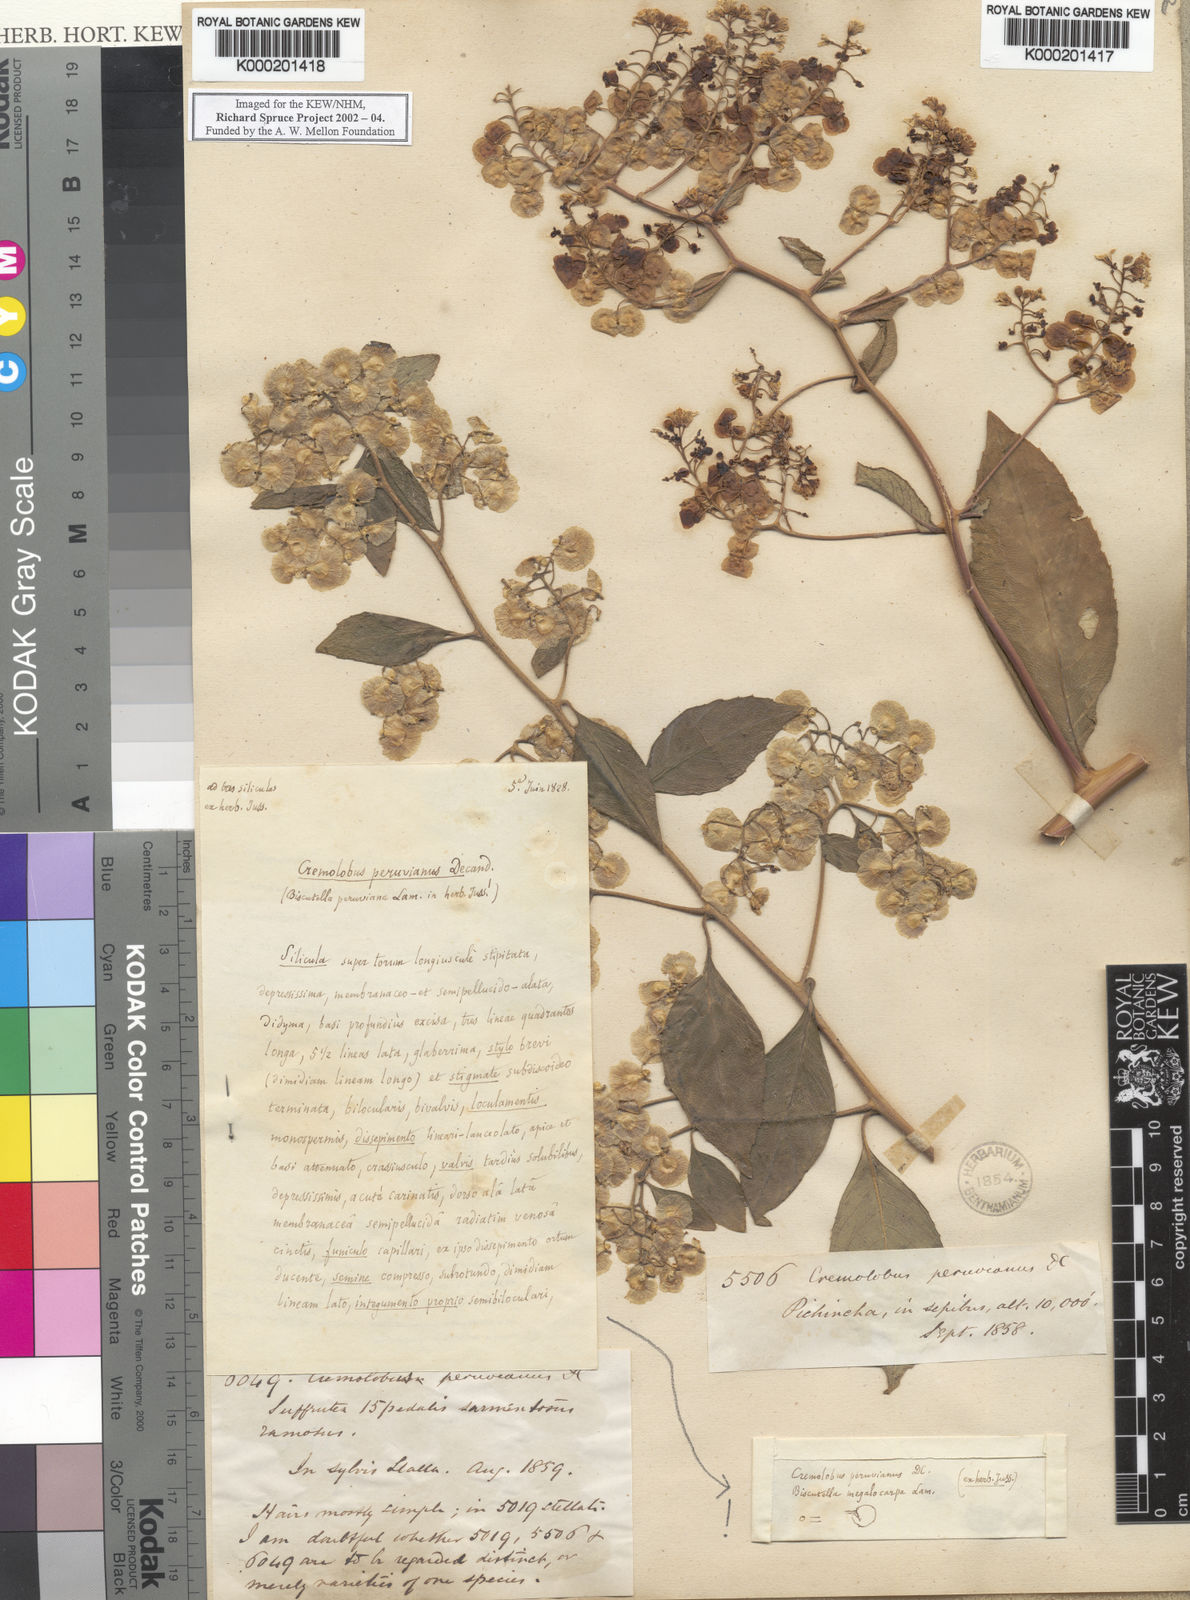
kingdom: Plantae
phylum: Tracheophyta
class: Magnoliopsida
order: Brassicales
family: Brassicaceae
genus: Cremolobus
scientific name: Cremolobus peruvianus
